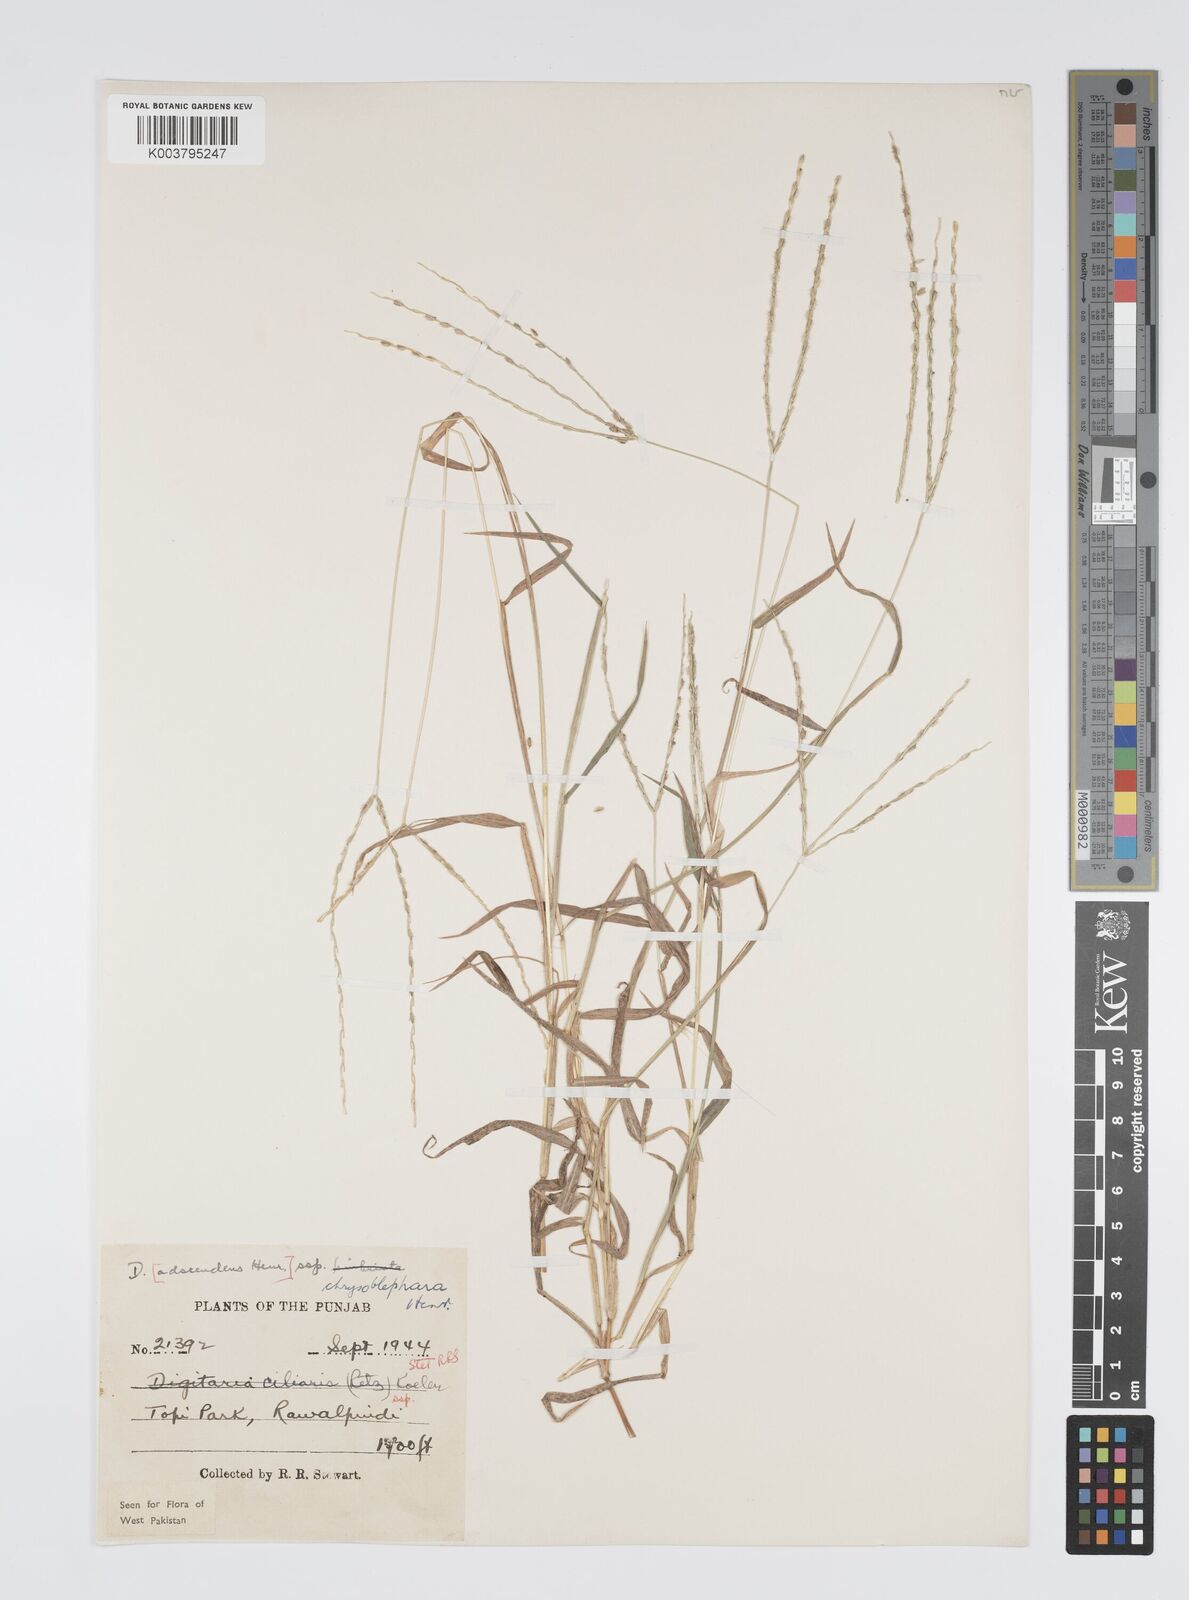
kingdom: Plantae
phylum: Tracheophyta
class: Liliopsida
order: Poales
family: Poaceae
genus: Digitaria
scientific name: Digitaria ciliaris
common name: Tropical finger-grass
